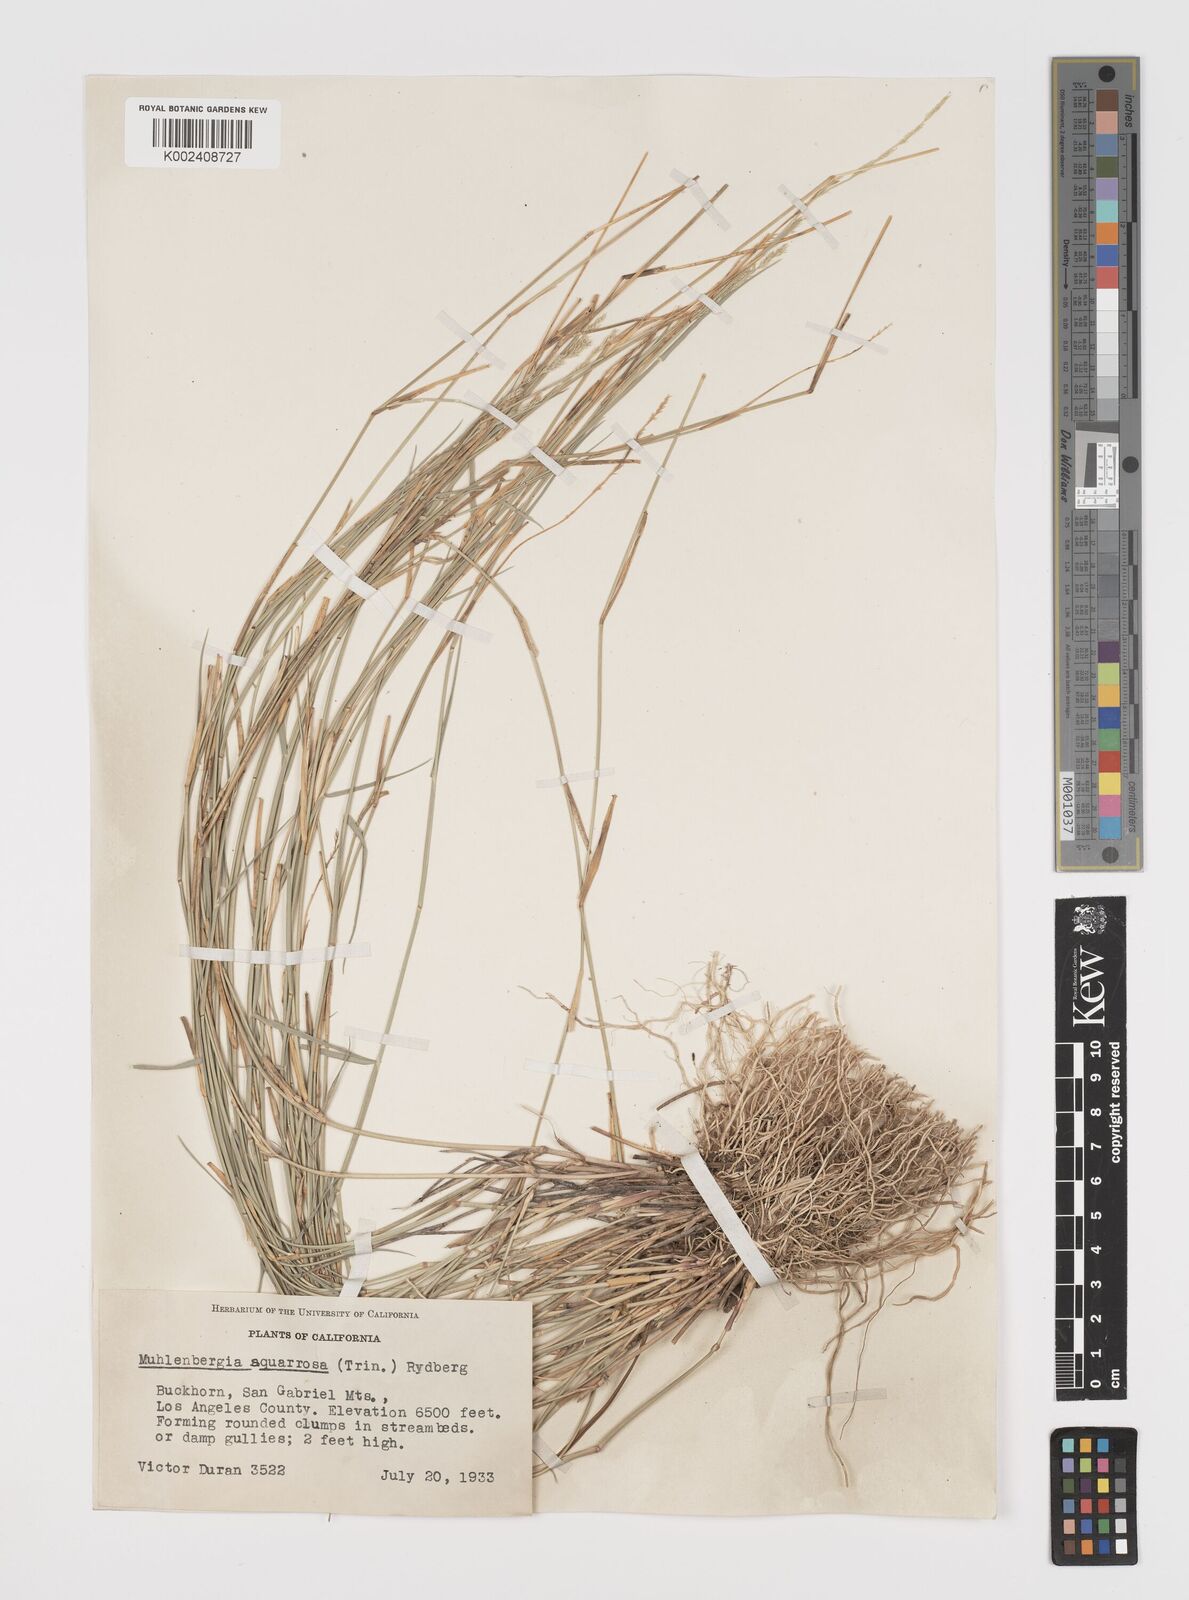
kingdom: Plantae
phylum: Tracheophyta
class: Liliopsida
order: Poales
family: Poaceae
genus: Muhlenbergia
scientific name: Muhlenbergia richardsonis
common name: Mat muhly
